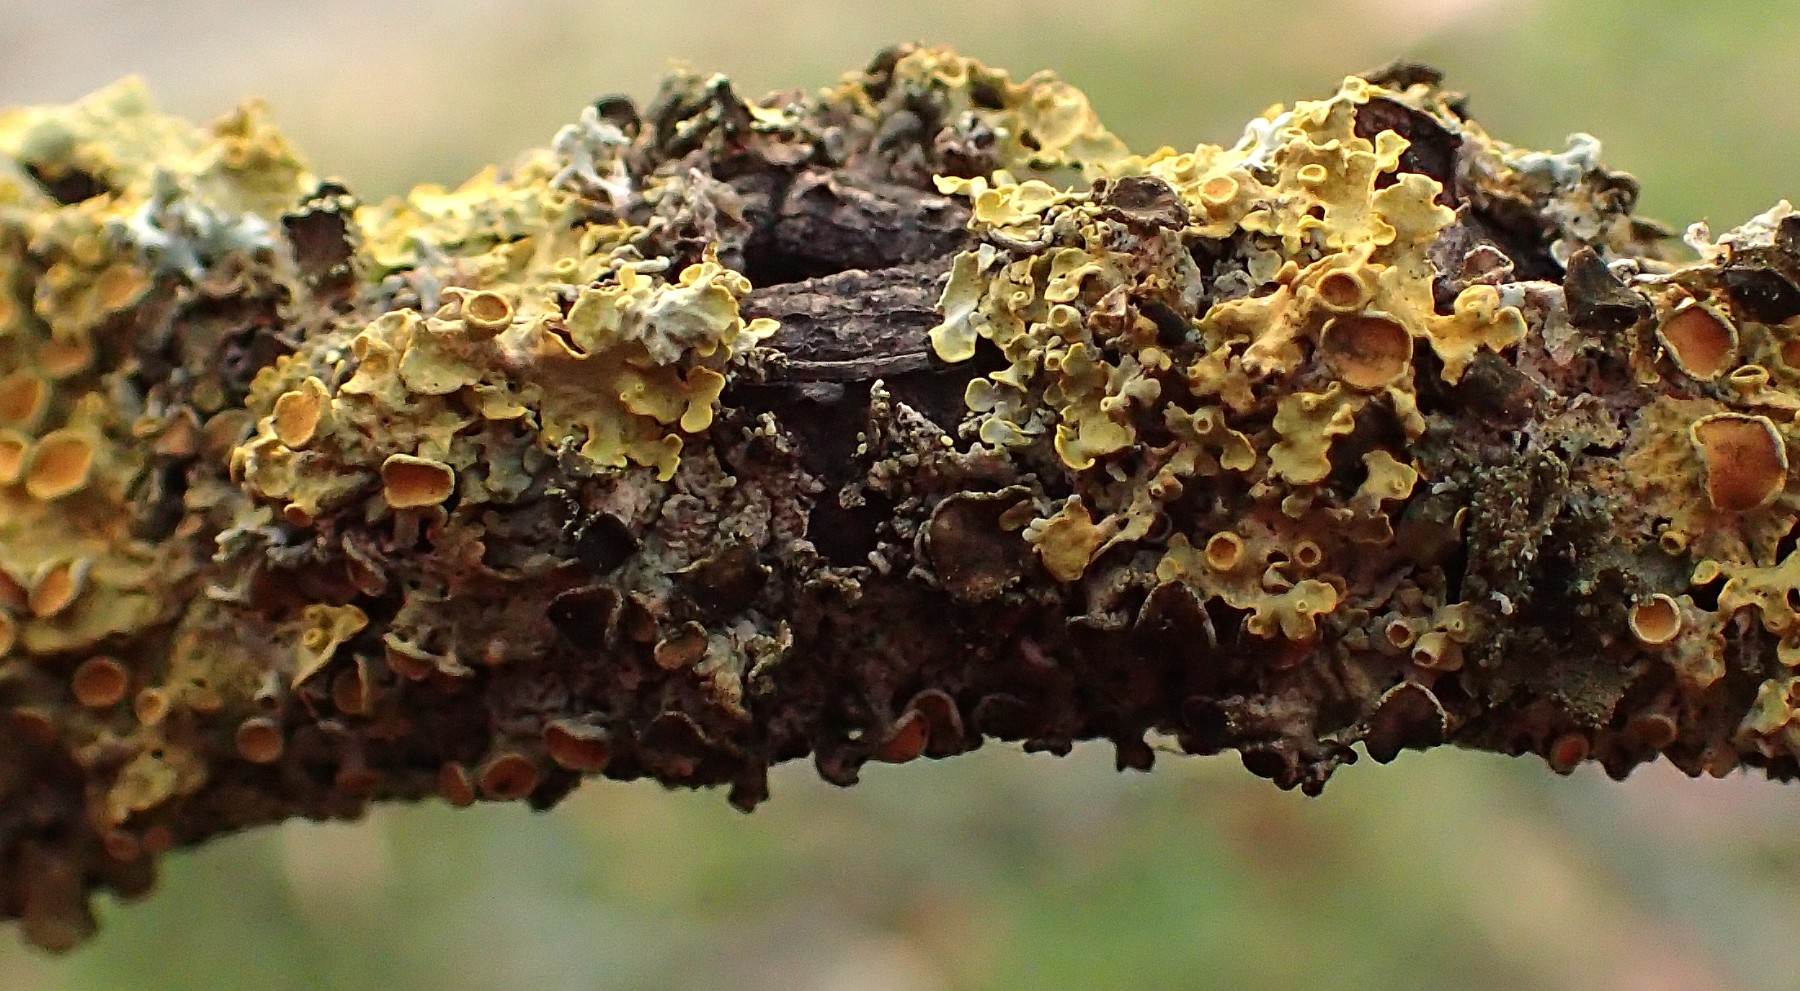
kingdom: Fungi
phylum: Ascomycota
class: Dothideomycetes
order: Mycosphaerellales
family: Teratosphaeriaceae
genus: Xanthoriicola
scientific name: Xanthoriicola physciae
